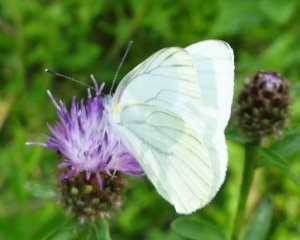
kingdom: Animalia
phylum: Arthropoda
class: Insecta
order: Lepidoptera
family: Pieridae
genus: Pieris
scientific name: Pieris oleracea
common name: Mustard White
